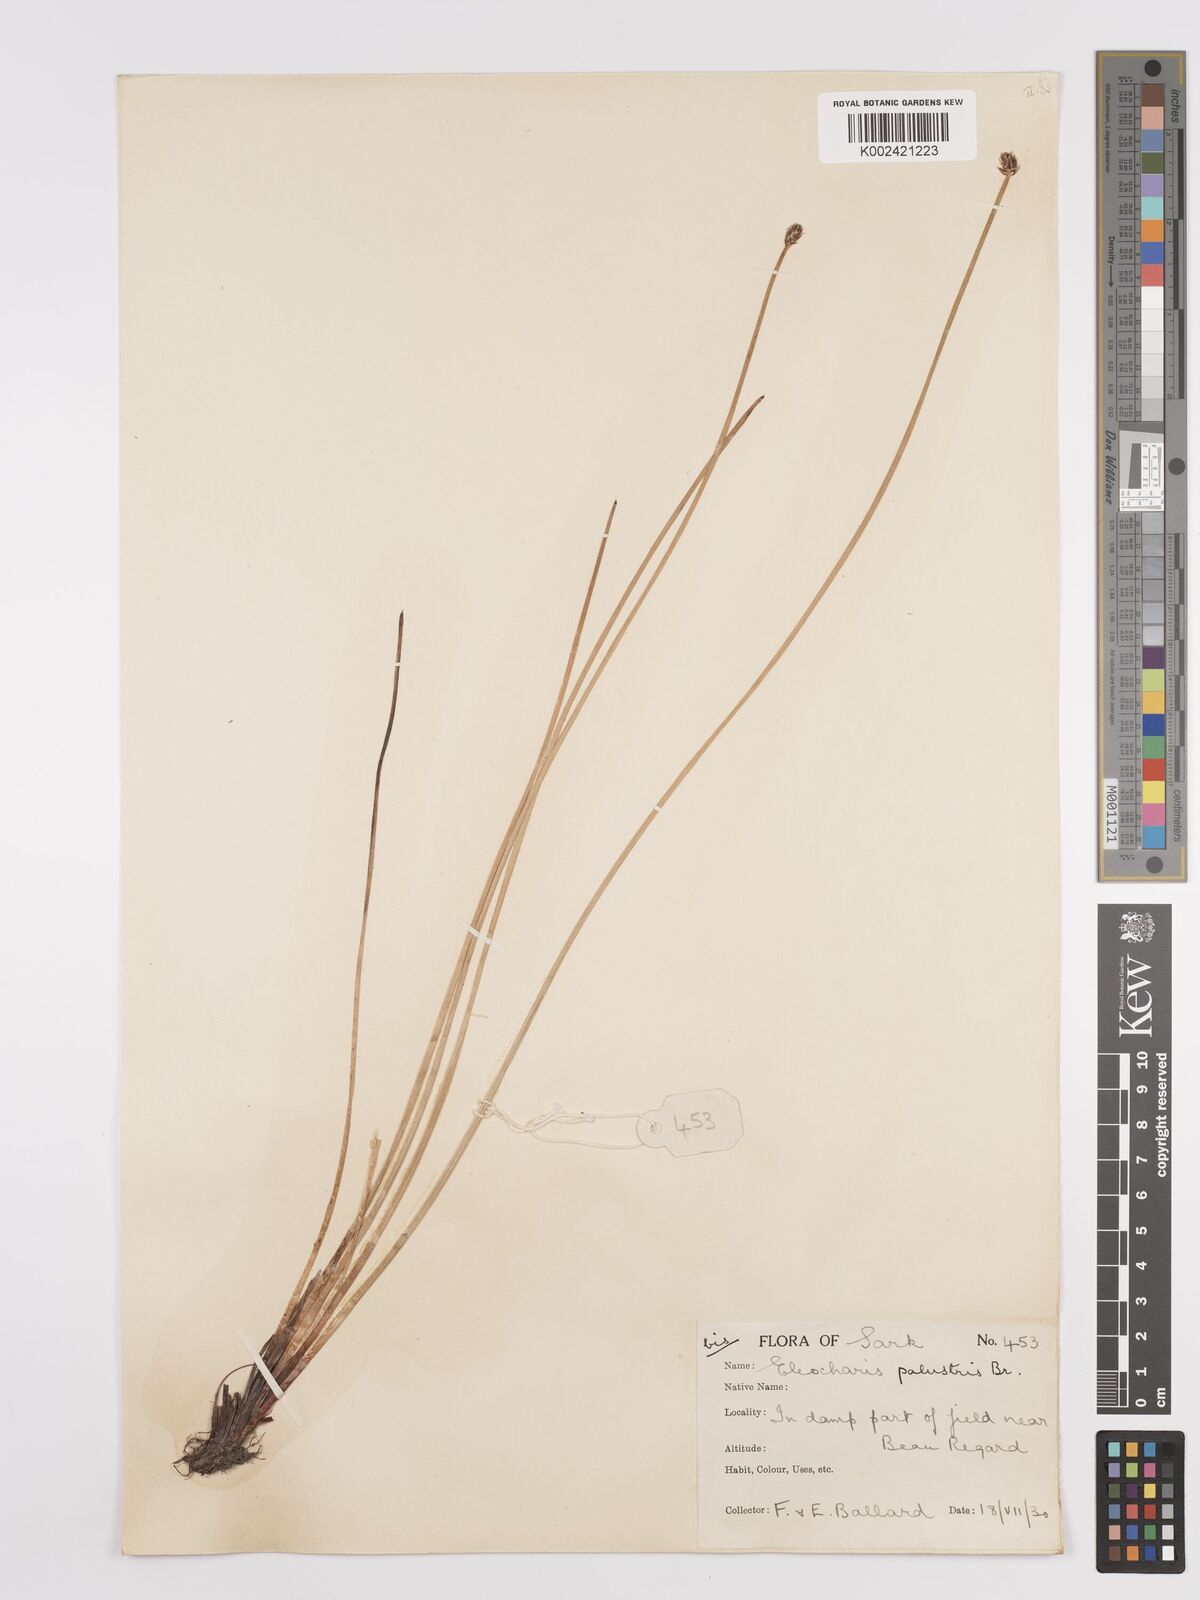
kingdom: Plantae
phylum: Tracheophyta
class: Liliopsida
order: Poales
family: Cyperaceae
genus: Eleocharis
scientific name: Eleocharis palustris
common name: Common spike-rush
